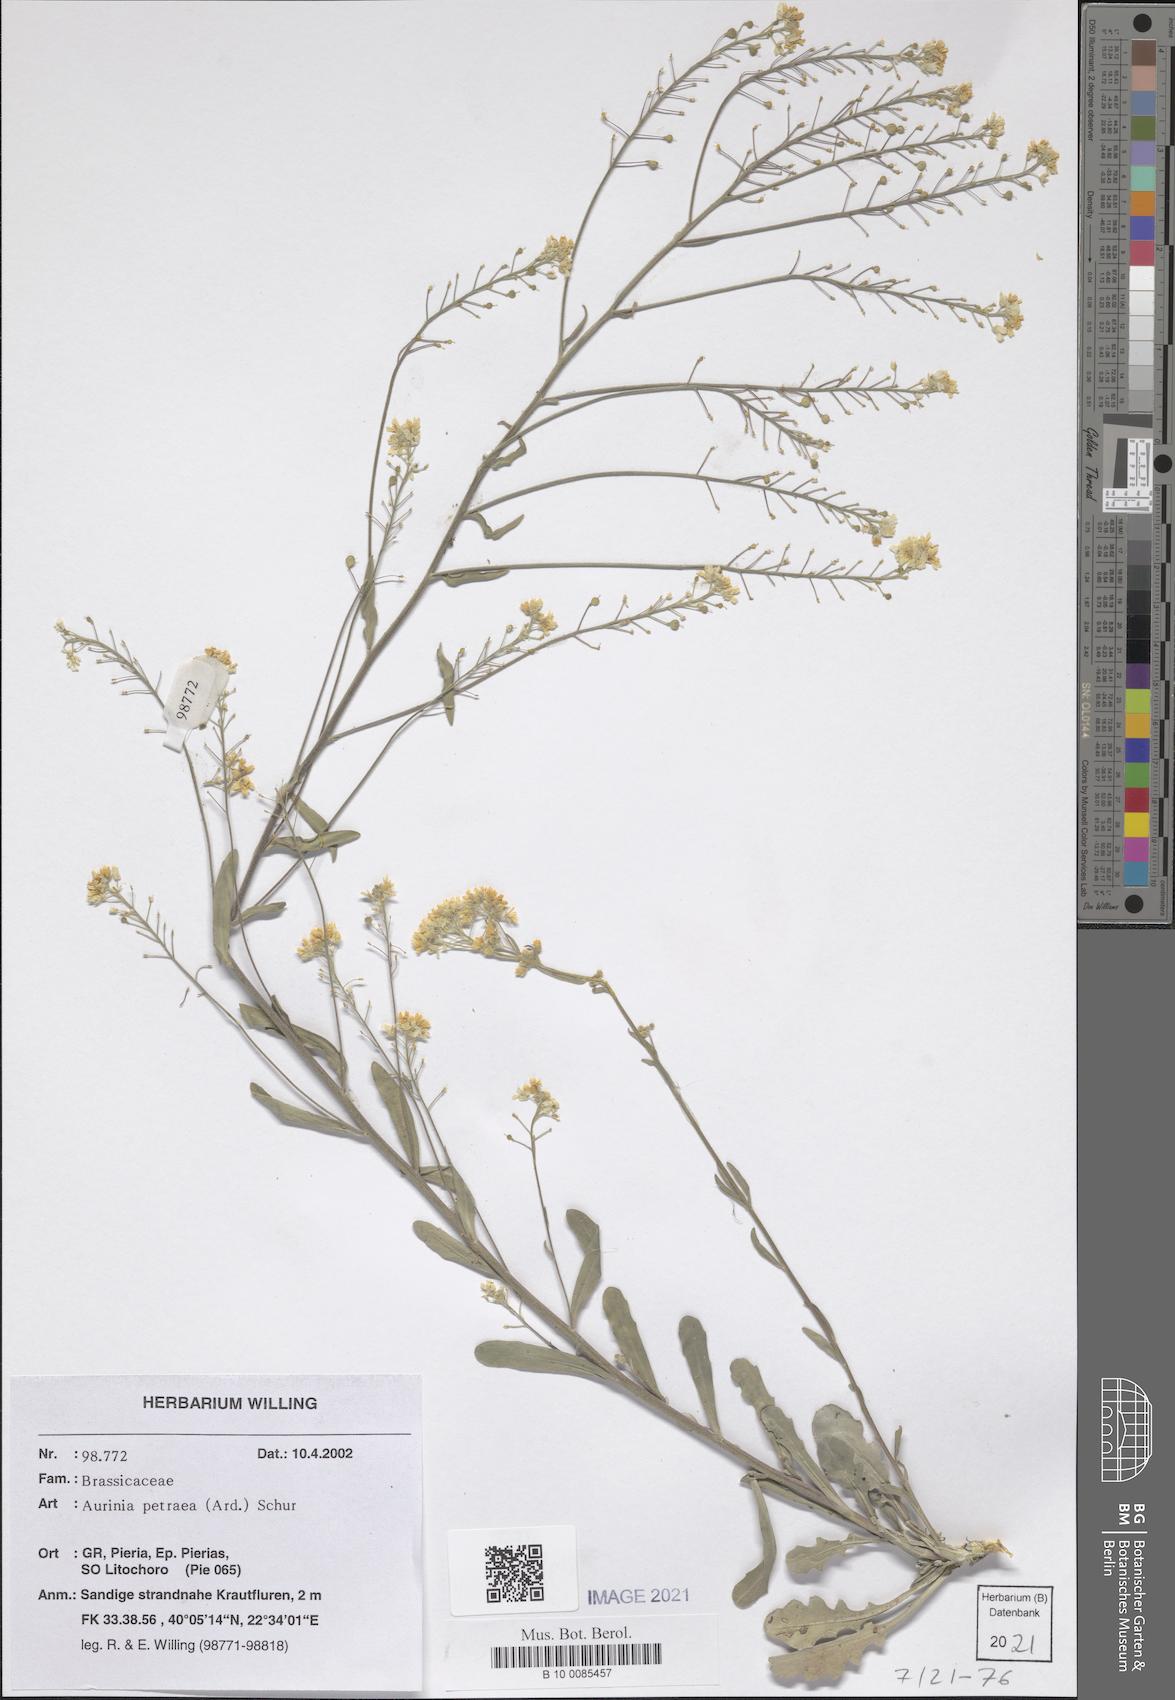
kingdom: Plantae
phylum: Tracheophyta
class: Magnoliopsida
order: Brassicales
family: Brassicaceae
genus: Aurinia
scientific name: Aurinia petraea
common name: Goldentuft
